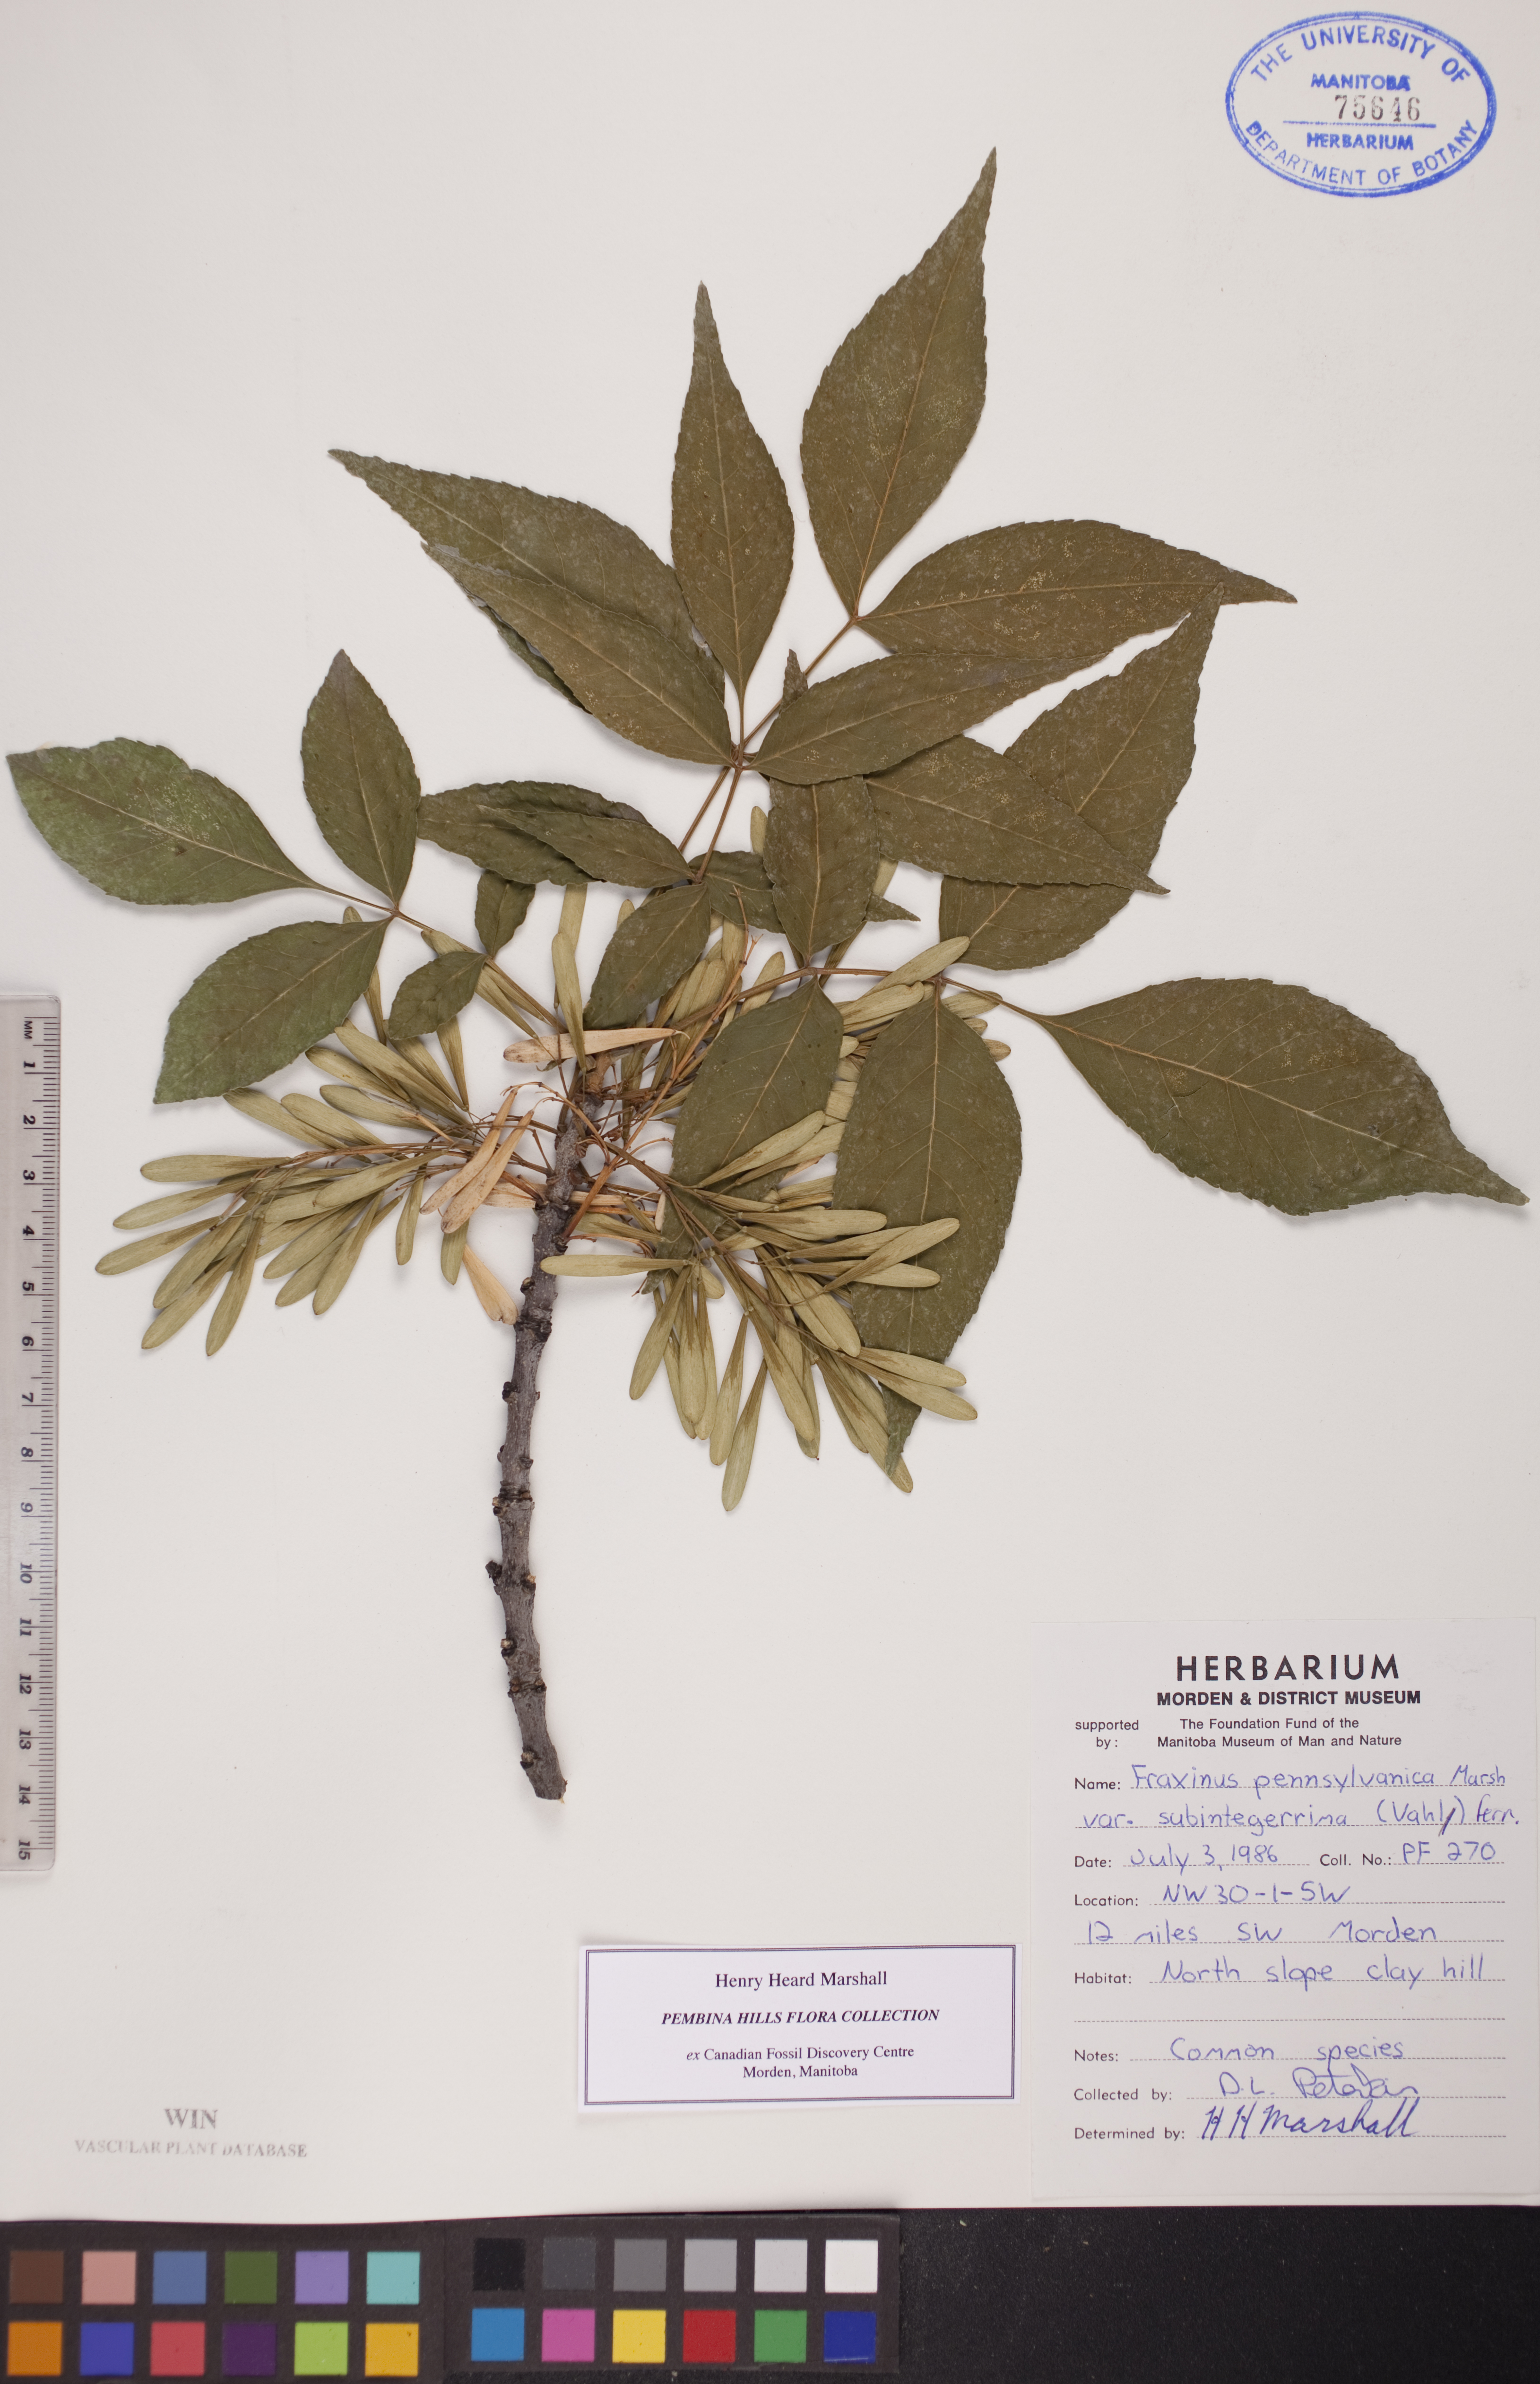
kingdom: Plantae
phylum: Tracheophyta
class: Magnoliopsida
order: Lamiales
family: Oleaceae
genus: Fraxinus
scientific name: Fraxinus pennsylvanica
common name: Green ash
